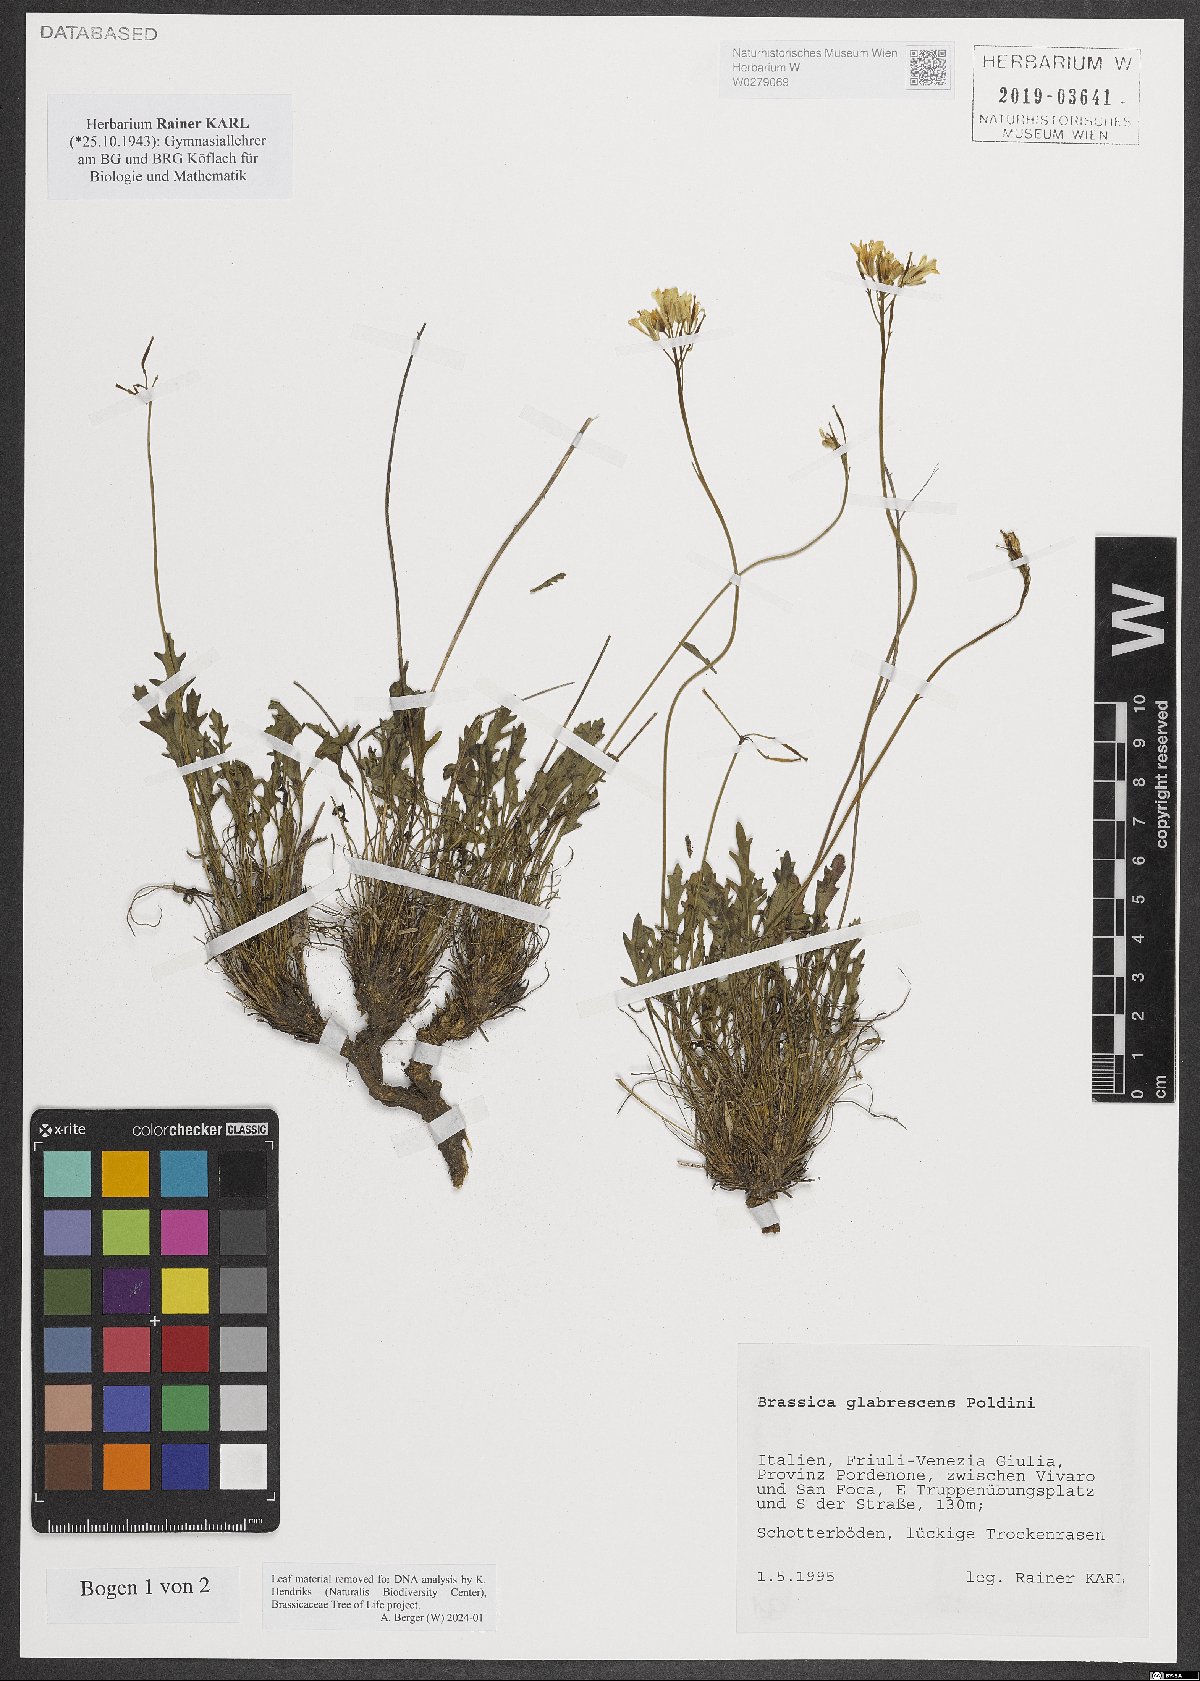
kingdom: Plantae
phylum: Tracheophyta
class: Magnoliopsida
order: Brassicales
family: Brassicaceae
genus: Brassica
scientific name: Brassica repanda
